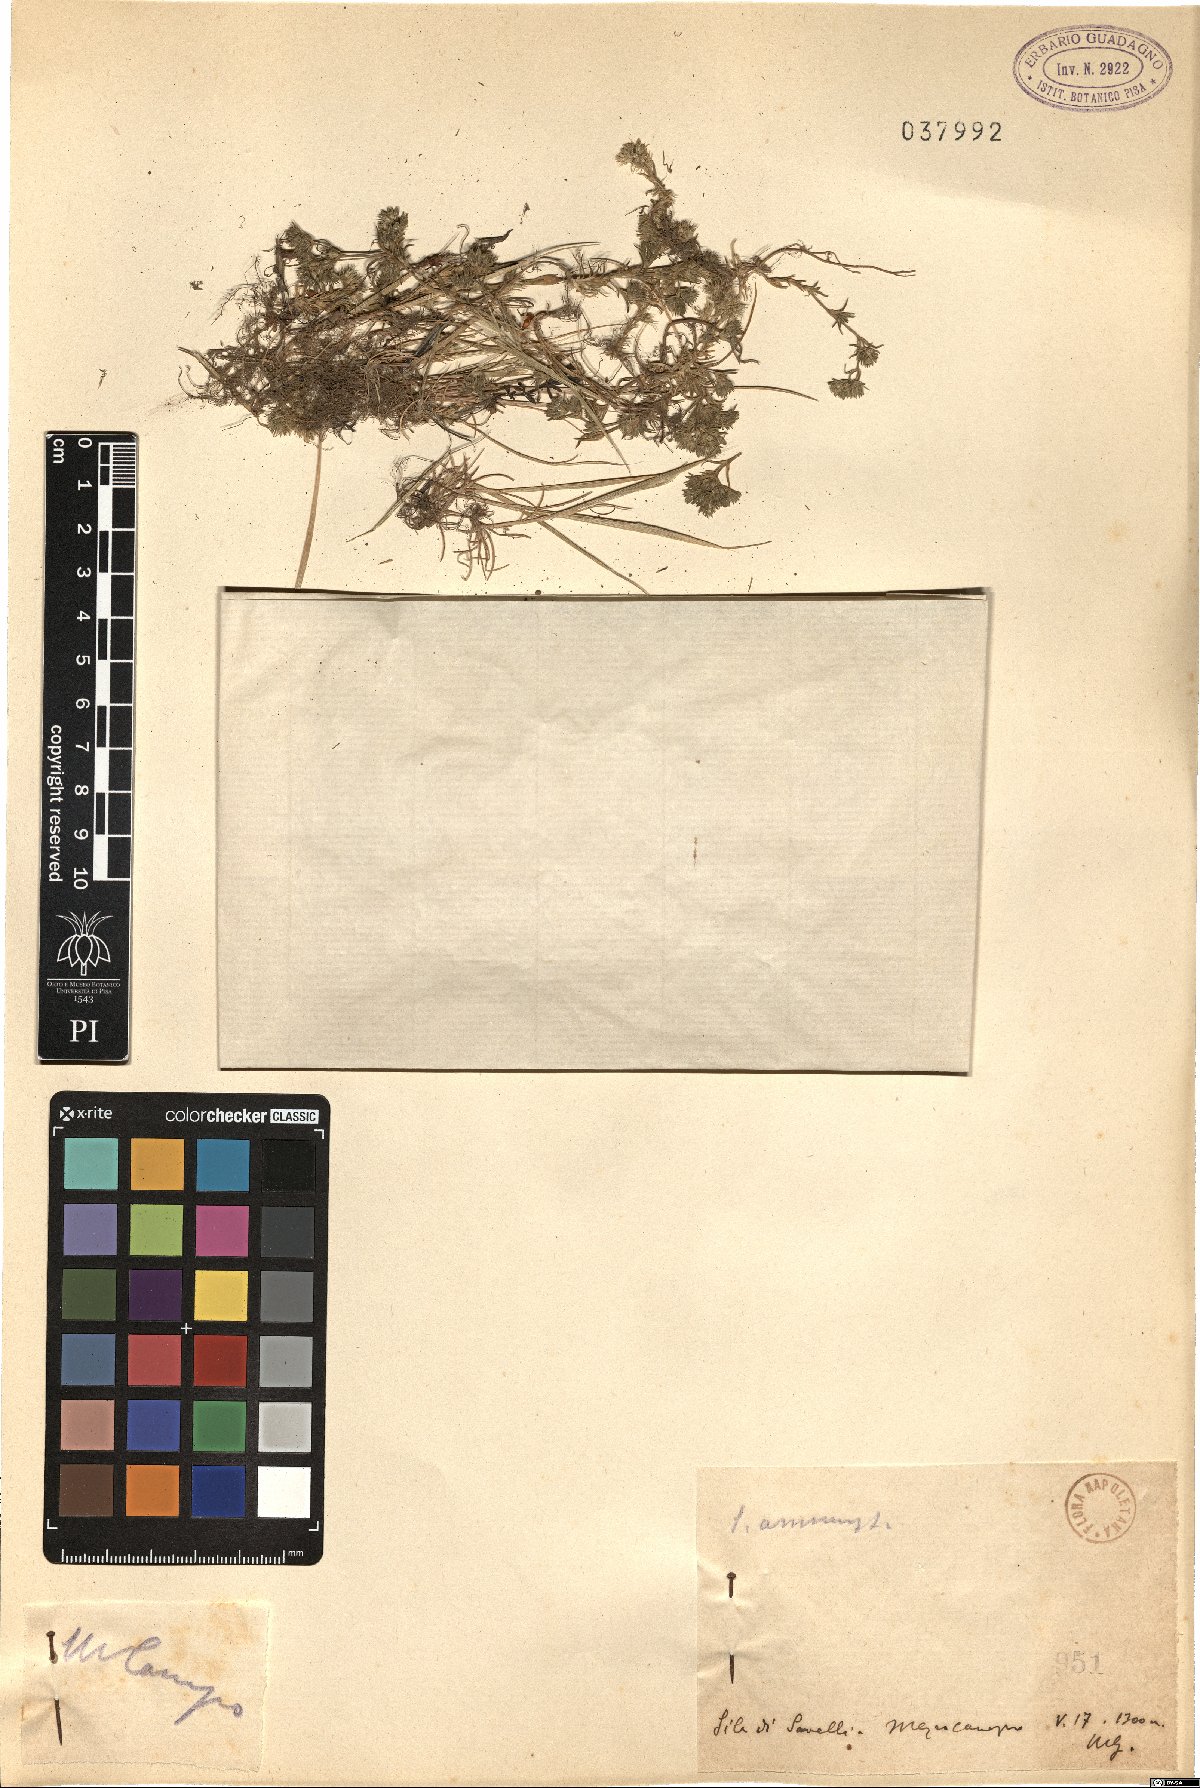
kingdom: Plantae
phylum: Tracheophyta
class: Magnoliopsida
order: Caryophyllales
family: Caryophyllaceae
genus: Scleranthus
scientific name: Scleranthus annuus
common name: Annual knawel
